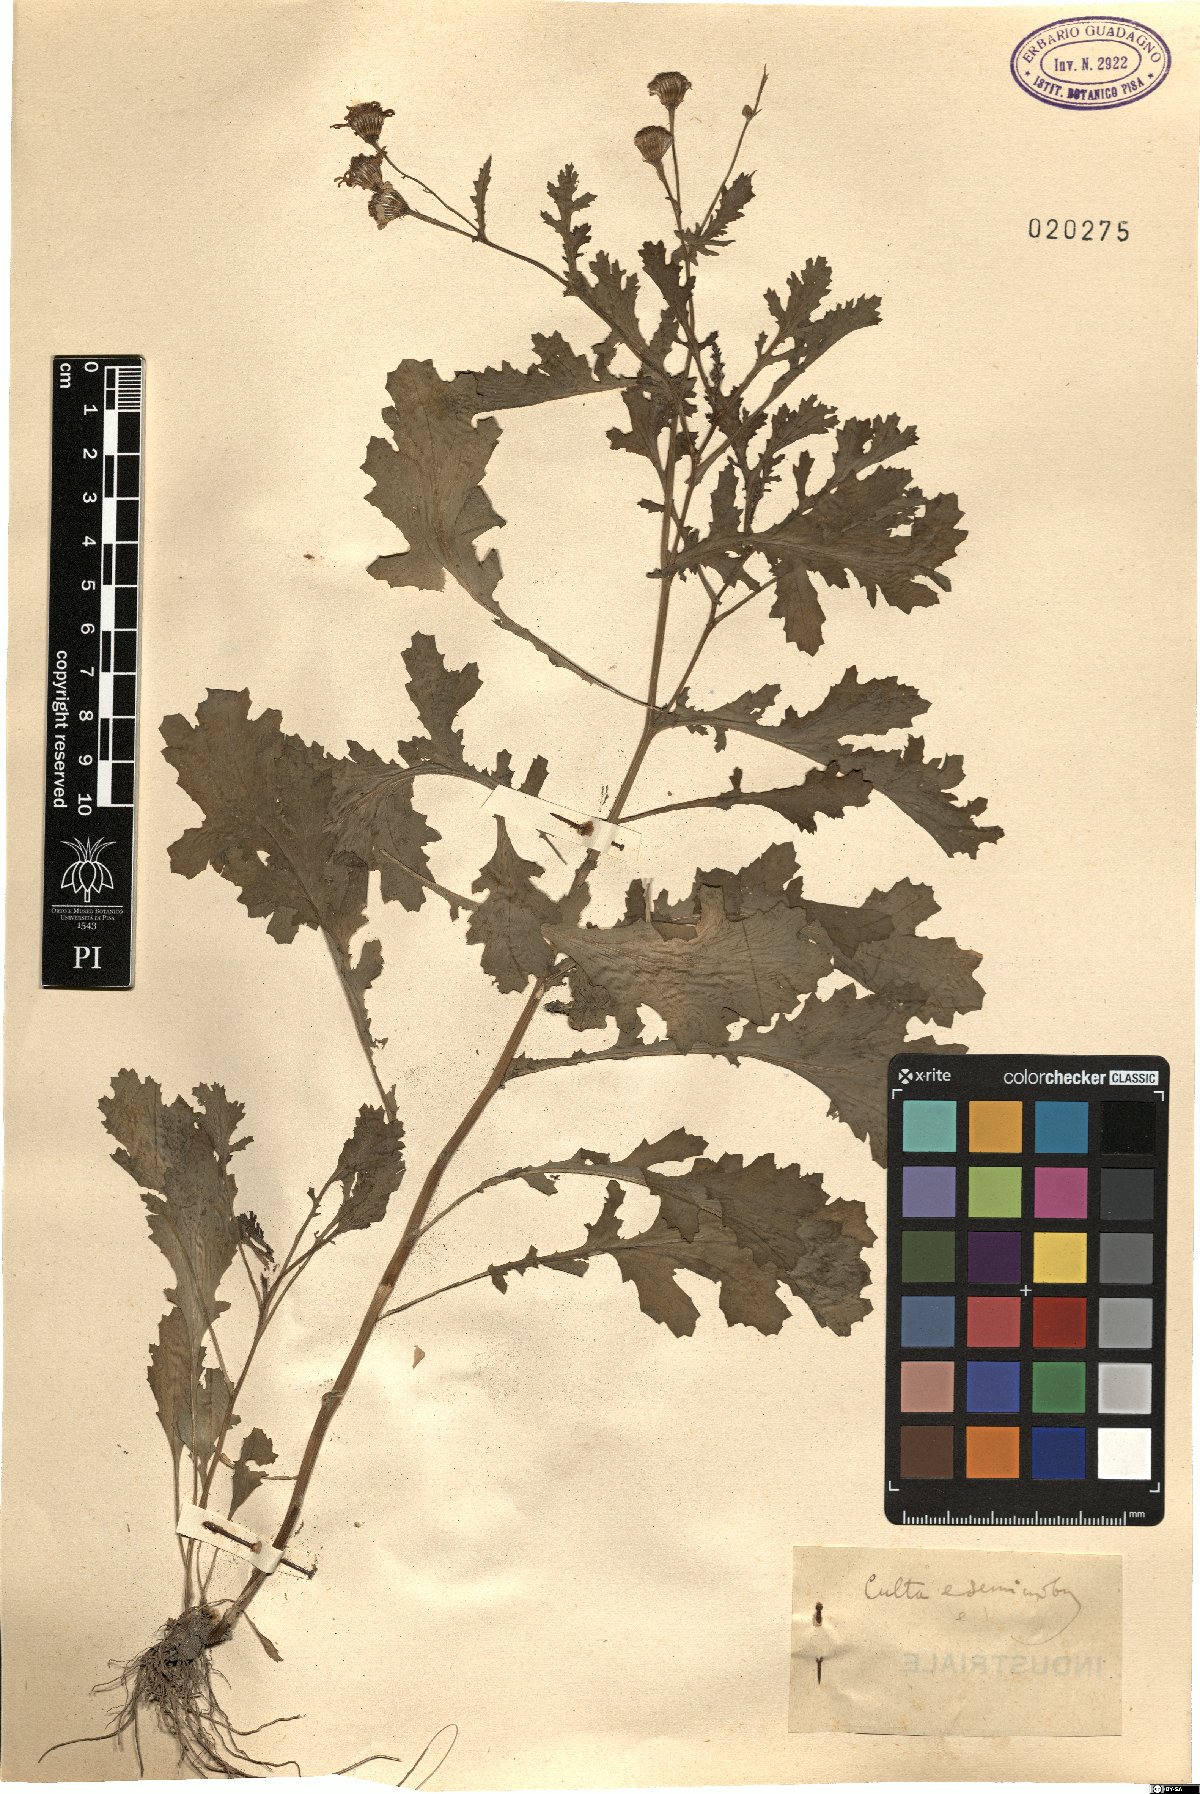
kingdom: Plantae
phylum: Tracheophyta
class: Magnoliopsida
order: Asterales
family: Asteraceae
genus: Senecio
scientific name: Senecio
